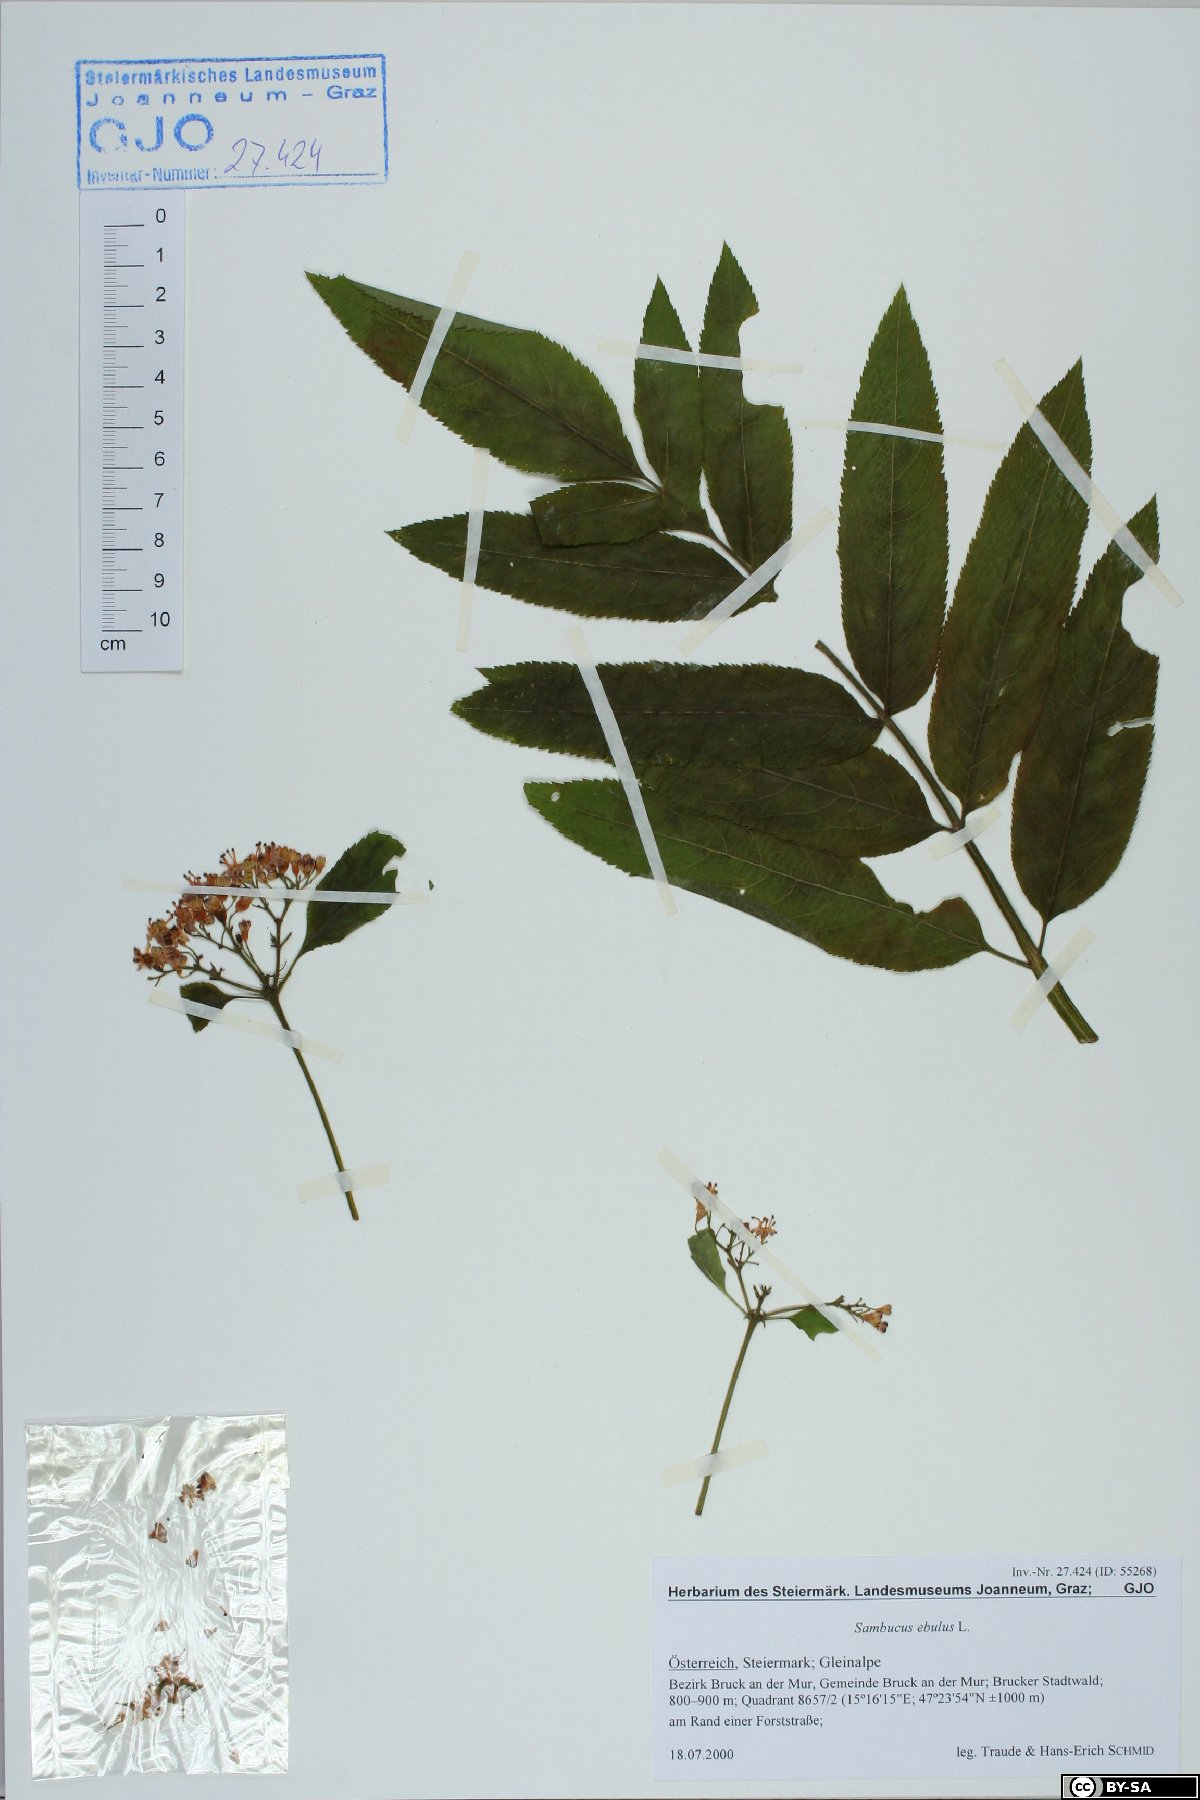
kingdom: Plantae
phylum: Tracheophyta
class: Magnoliopsida
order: Dipsacales
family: Viburnaceae
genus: Sambucus
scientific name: Sambucus ebulus
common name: Dwarf elder
